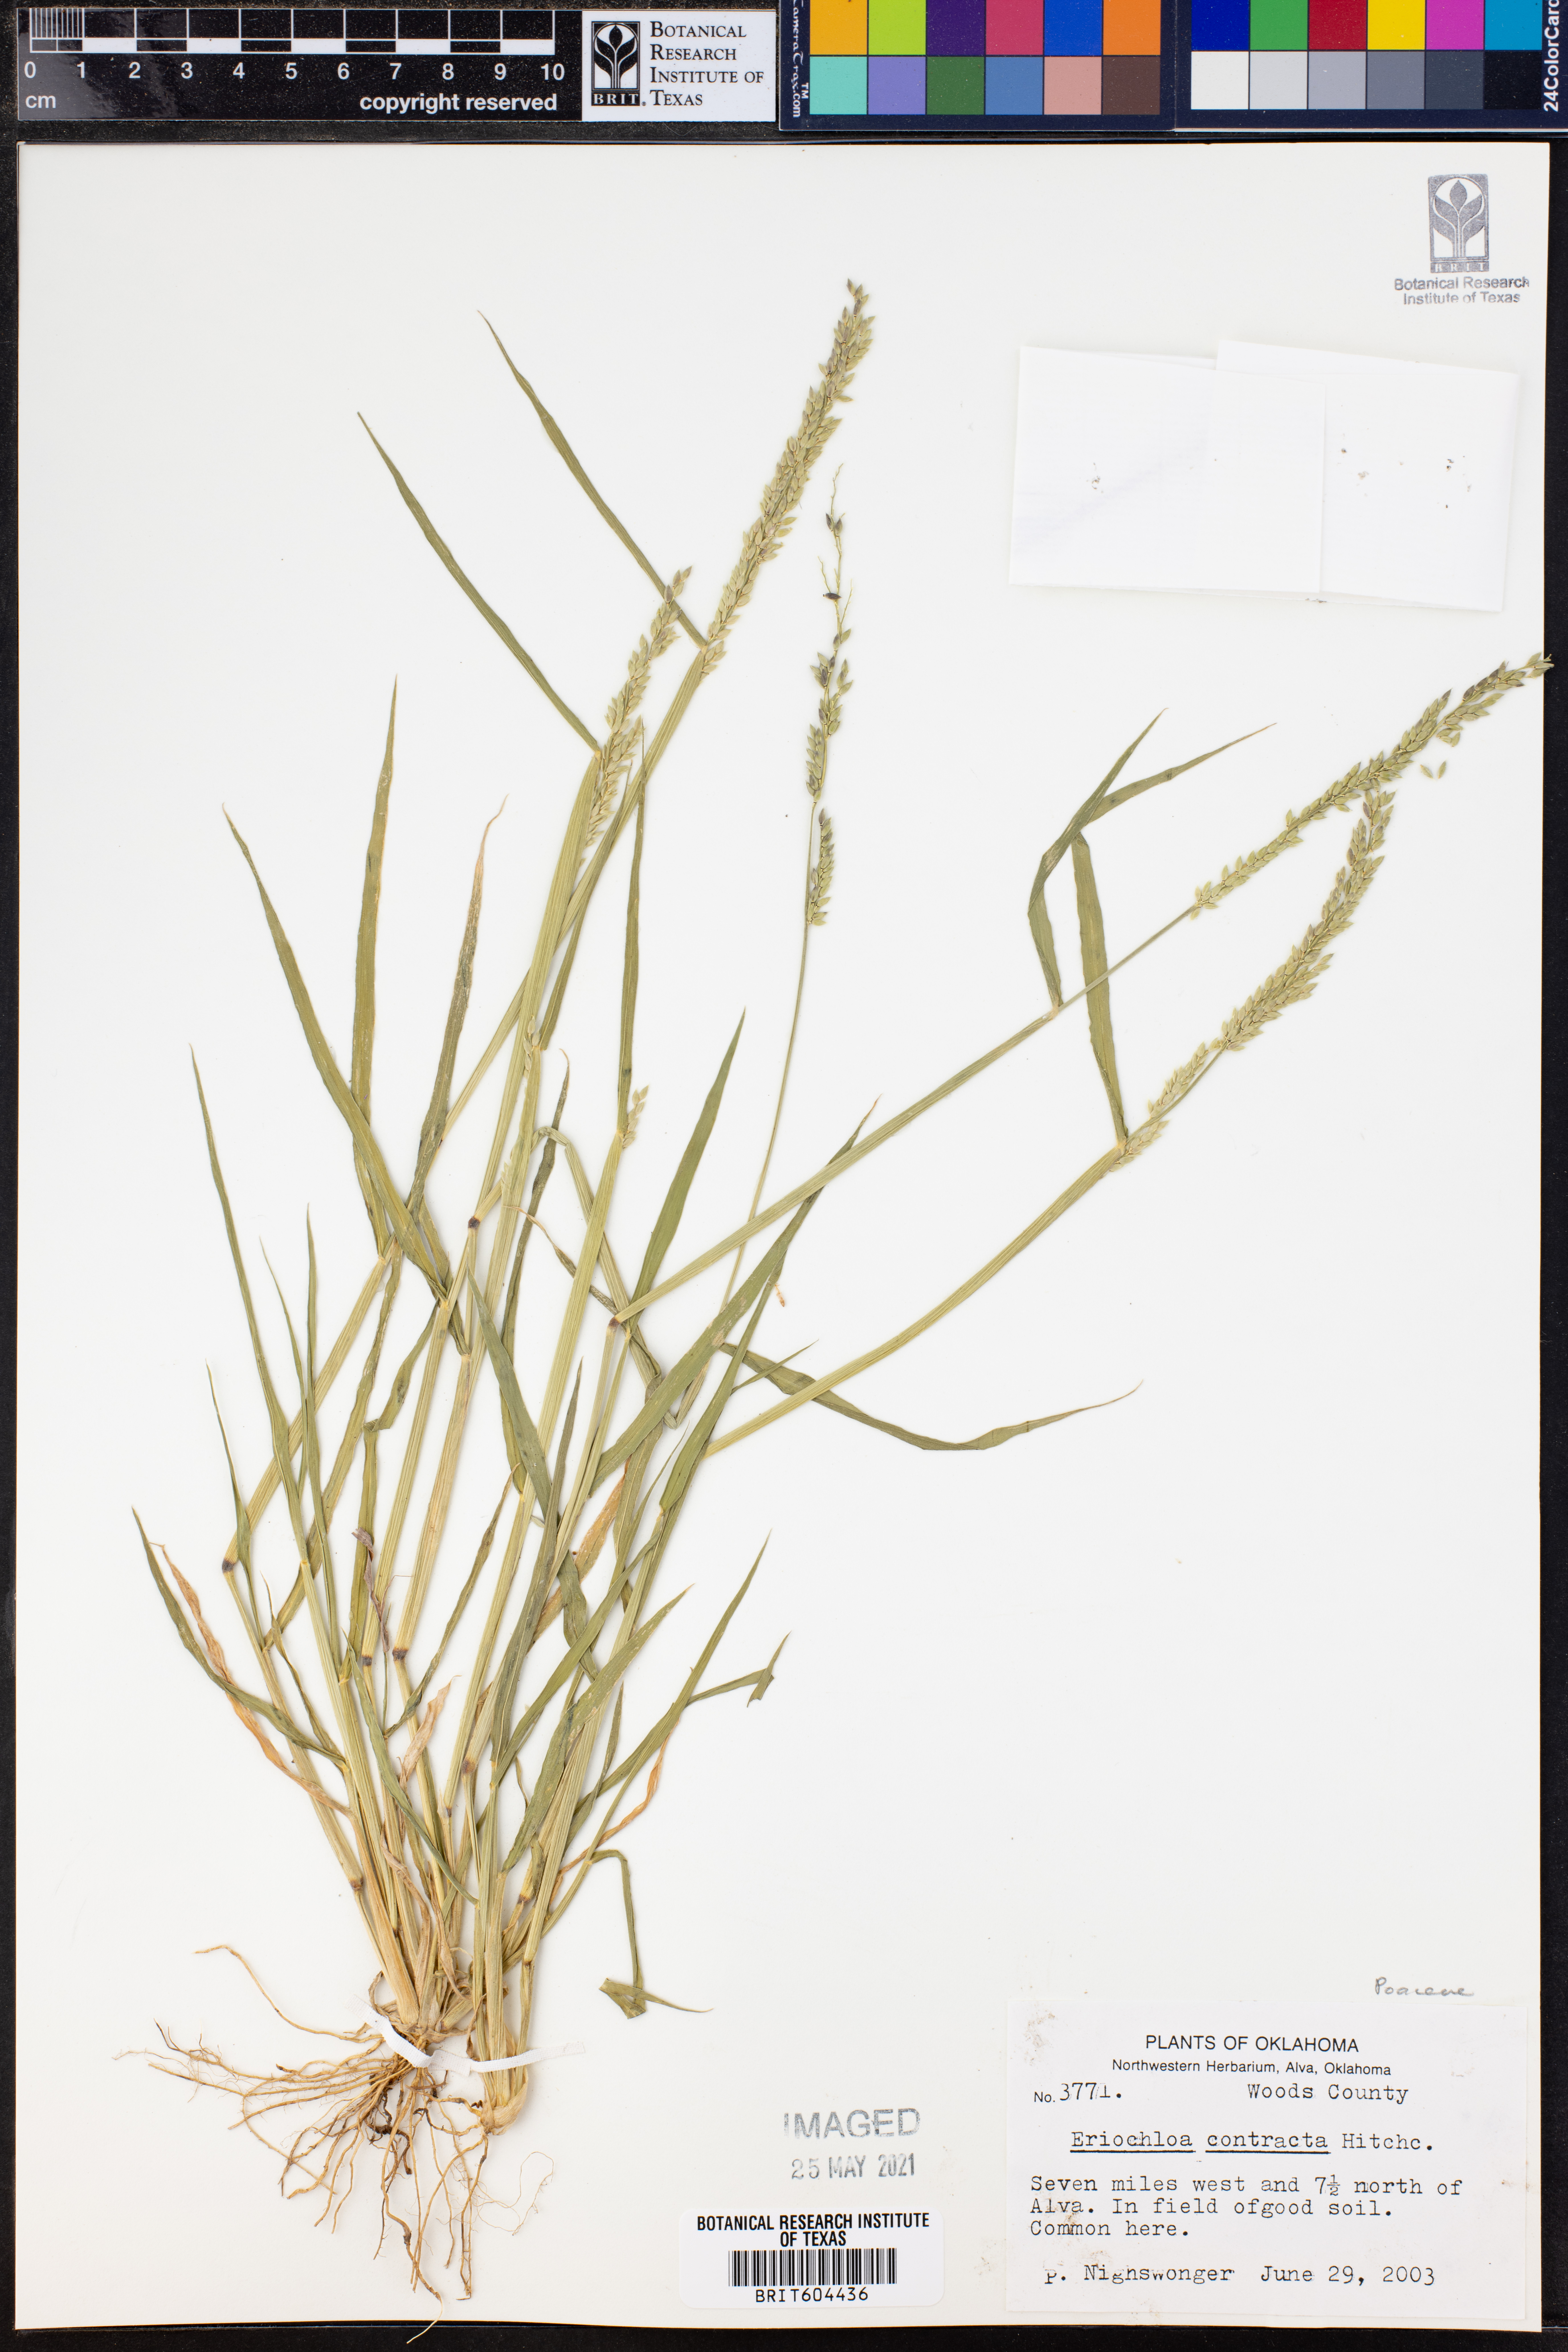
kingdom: Plantae
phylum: Tracheophyta
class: Liliopsida
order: Poales
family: Poaceae
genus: Eriochloa
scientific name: Eriochloa contracta
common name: Prairie cup grass
